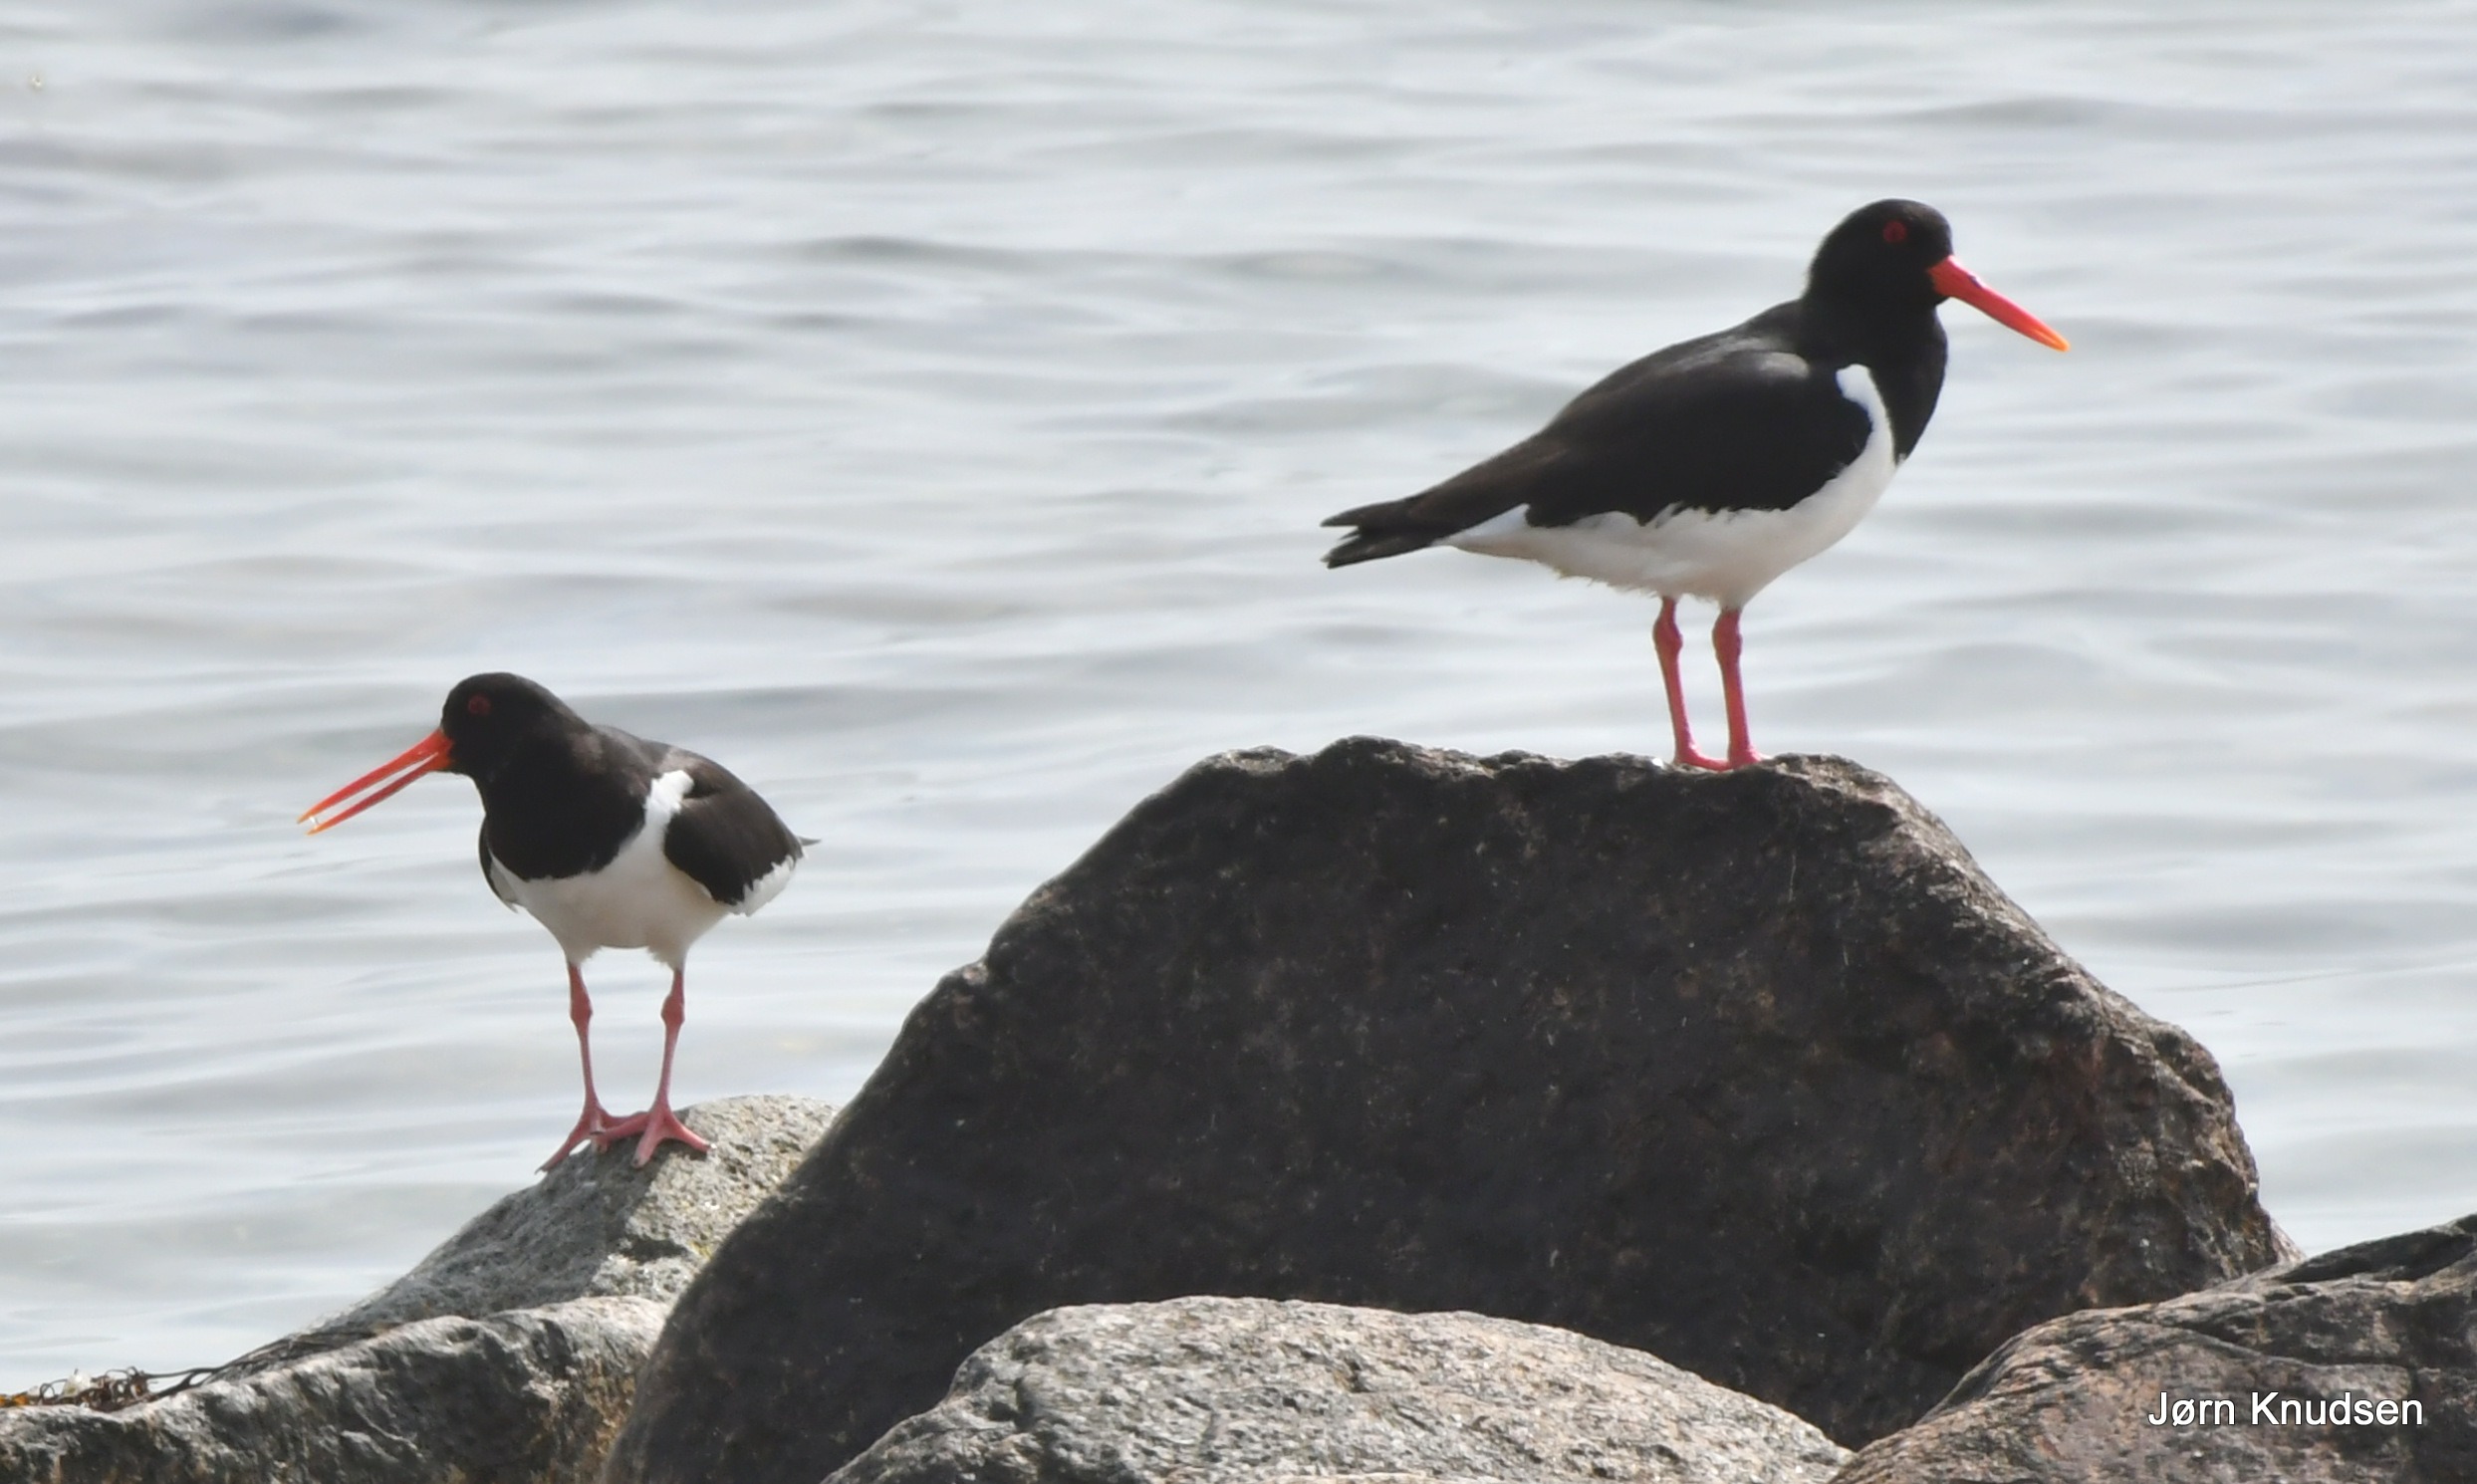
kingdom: Animalia
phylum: Chordata
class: Aves
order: Charadriiformes
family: Haematopodidae
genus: Haematopus
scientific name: Haematopus ostralegus
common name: Strandskade
